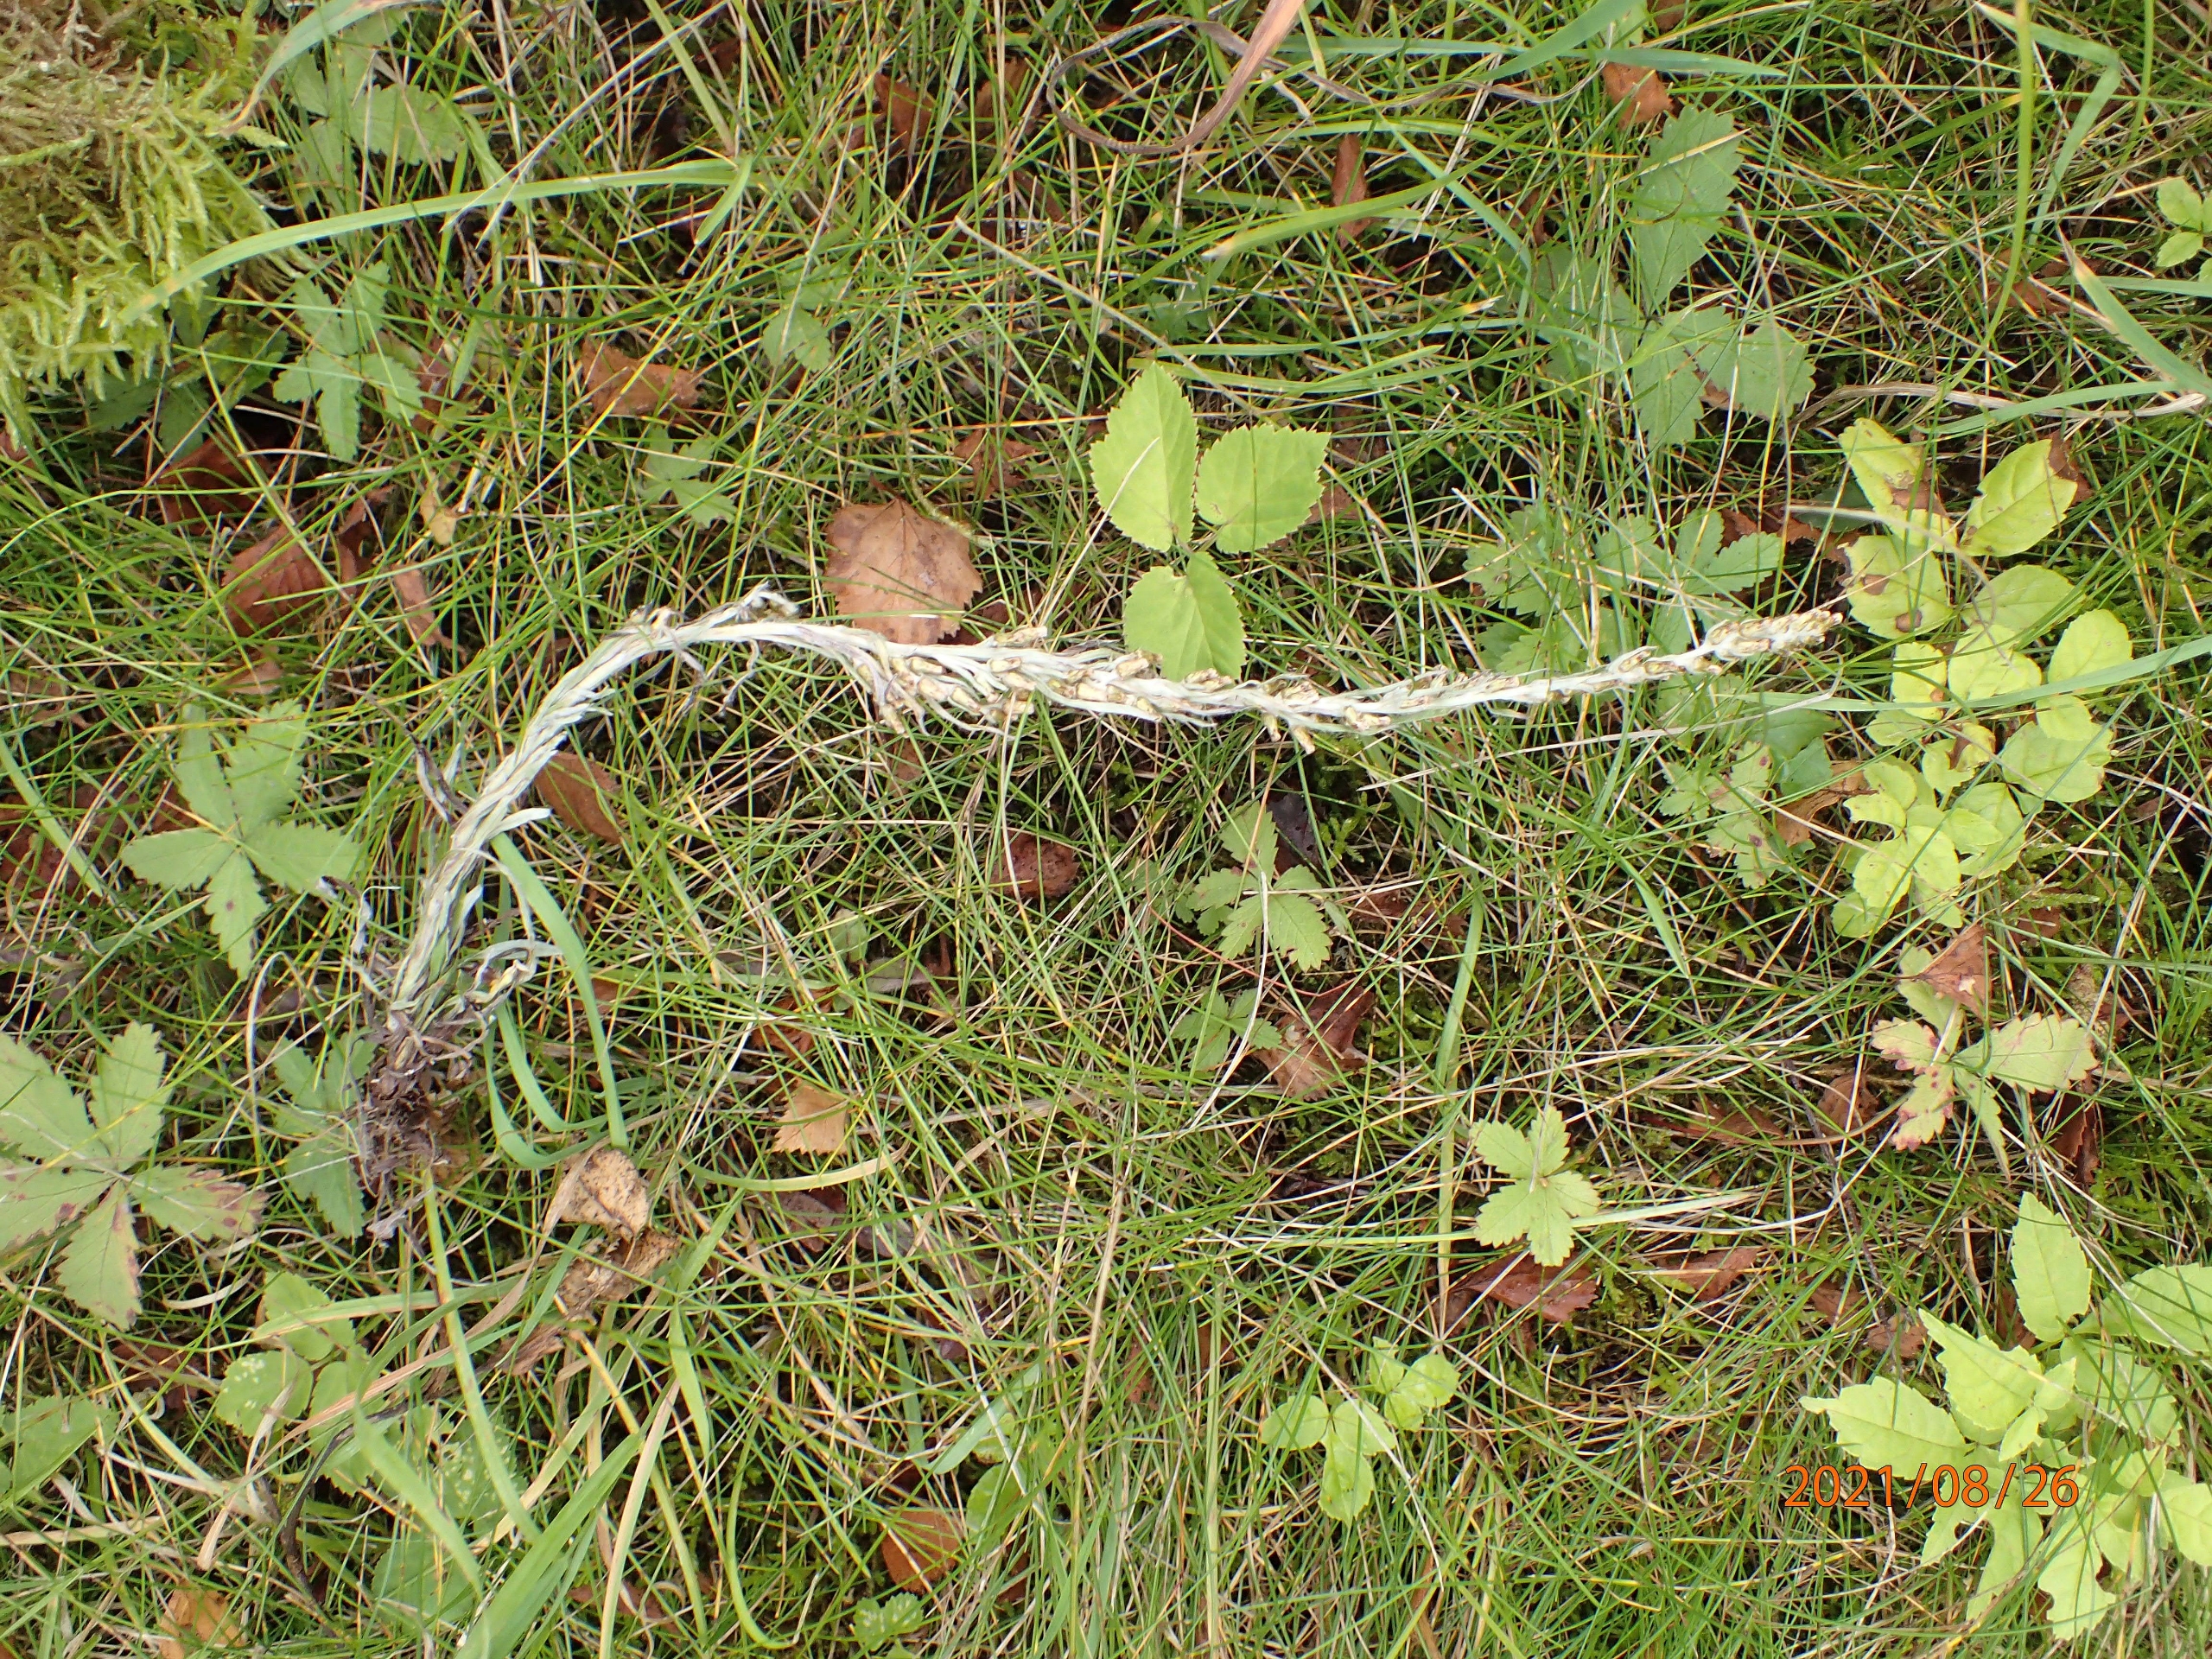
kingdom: Plantae
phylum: Tracheophyta
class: Magnoliopsida
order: Asterales
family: Asteraceae
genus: Omalotheca
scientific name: Omalotheca sylvatica
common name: Rank evighedsblomst
